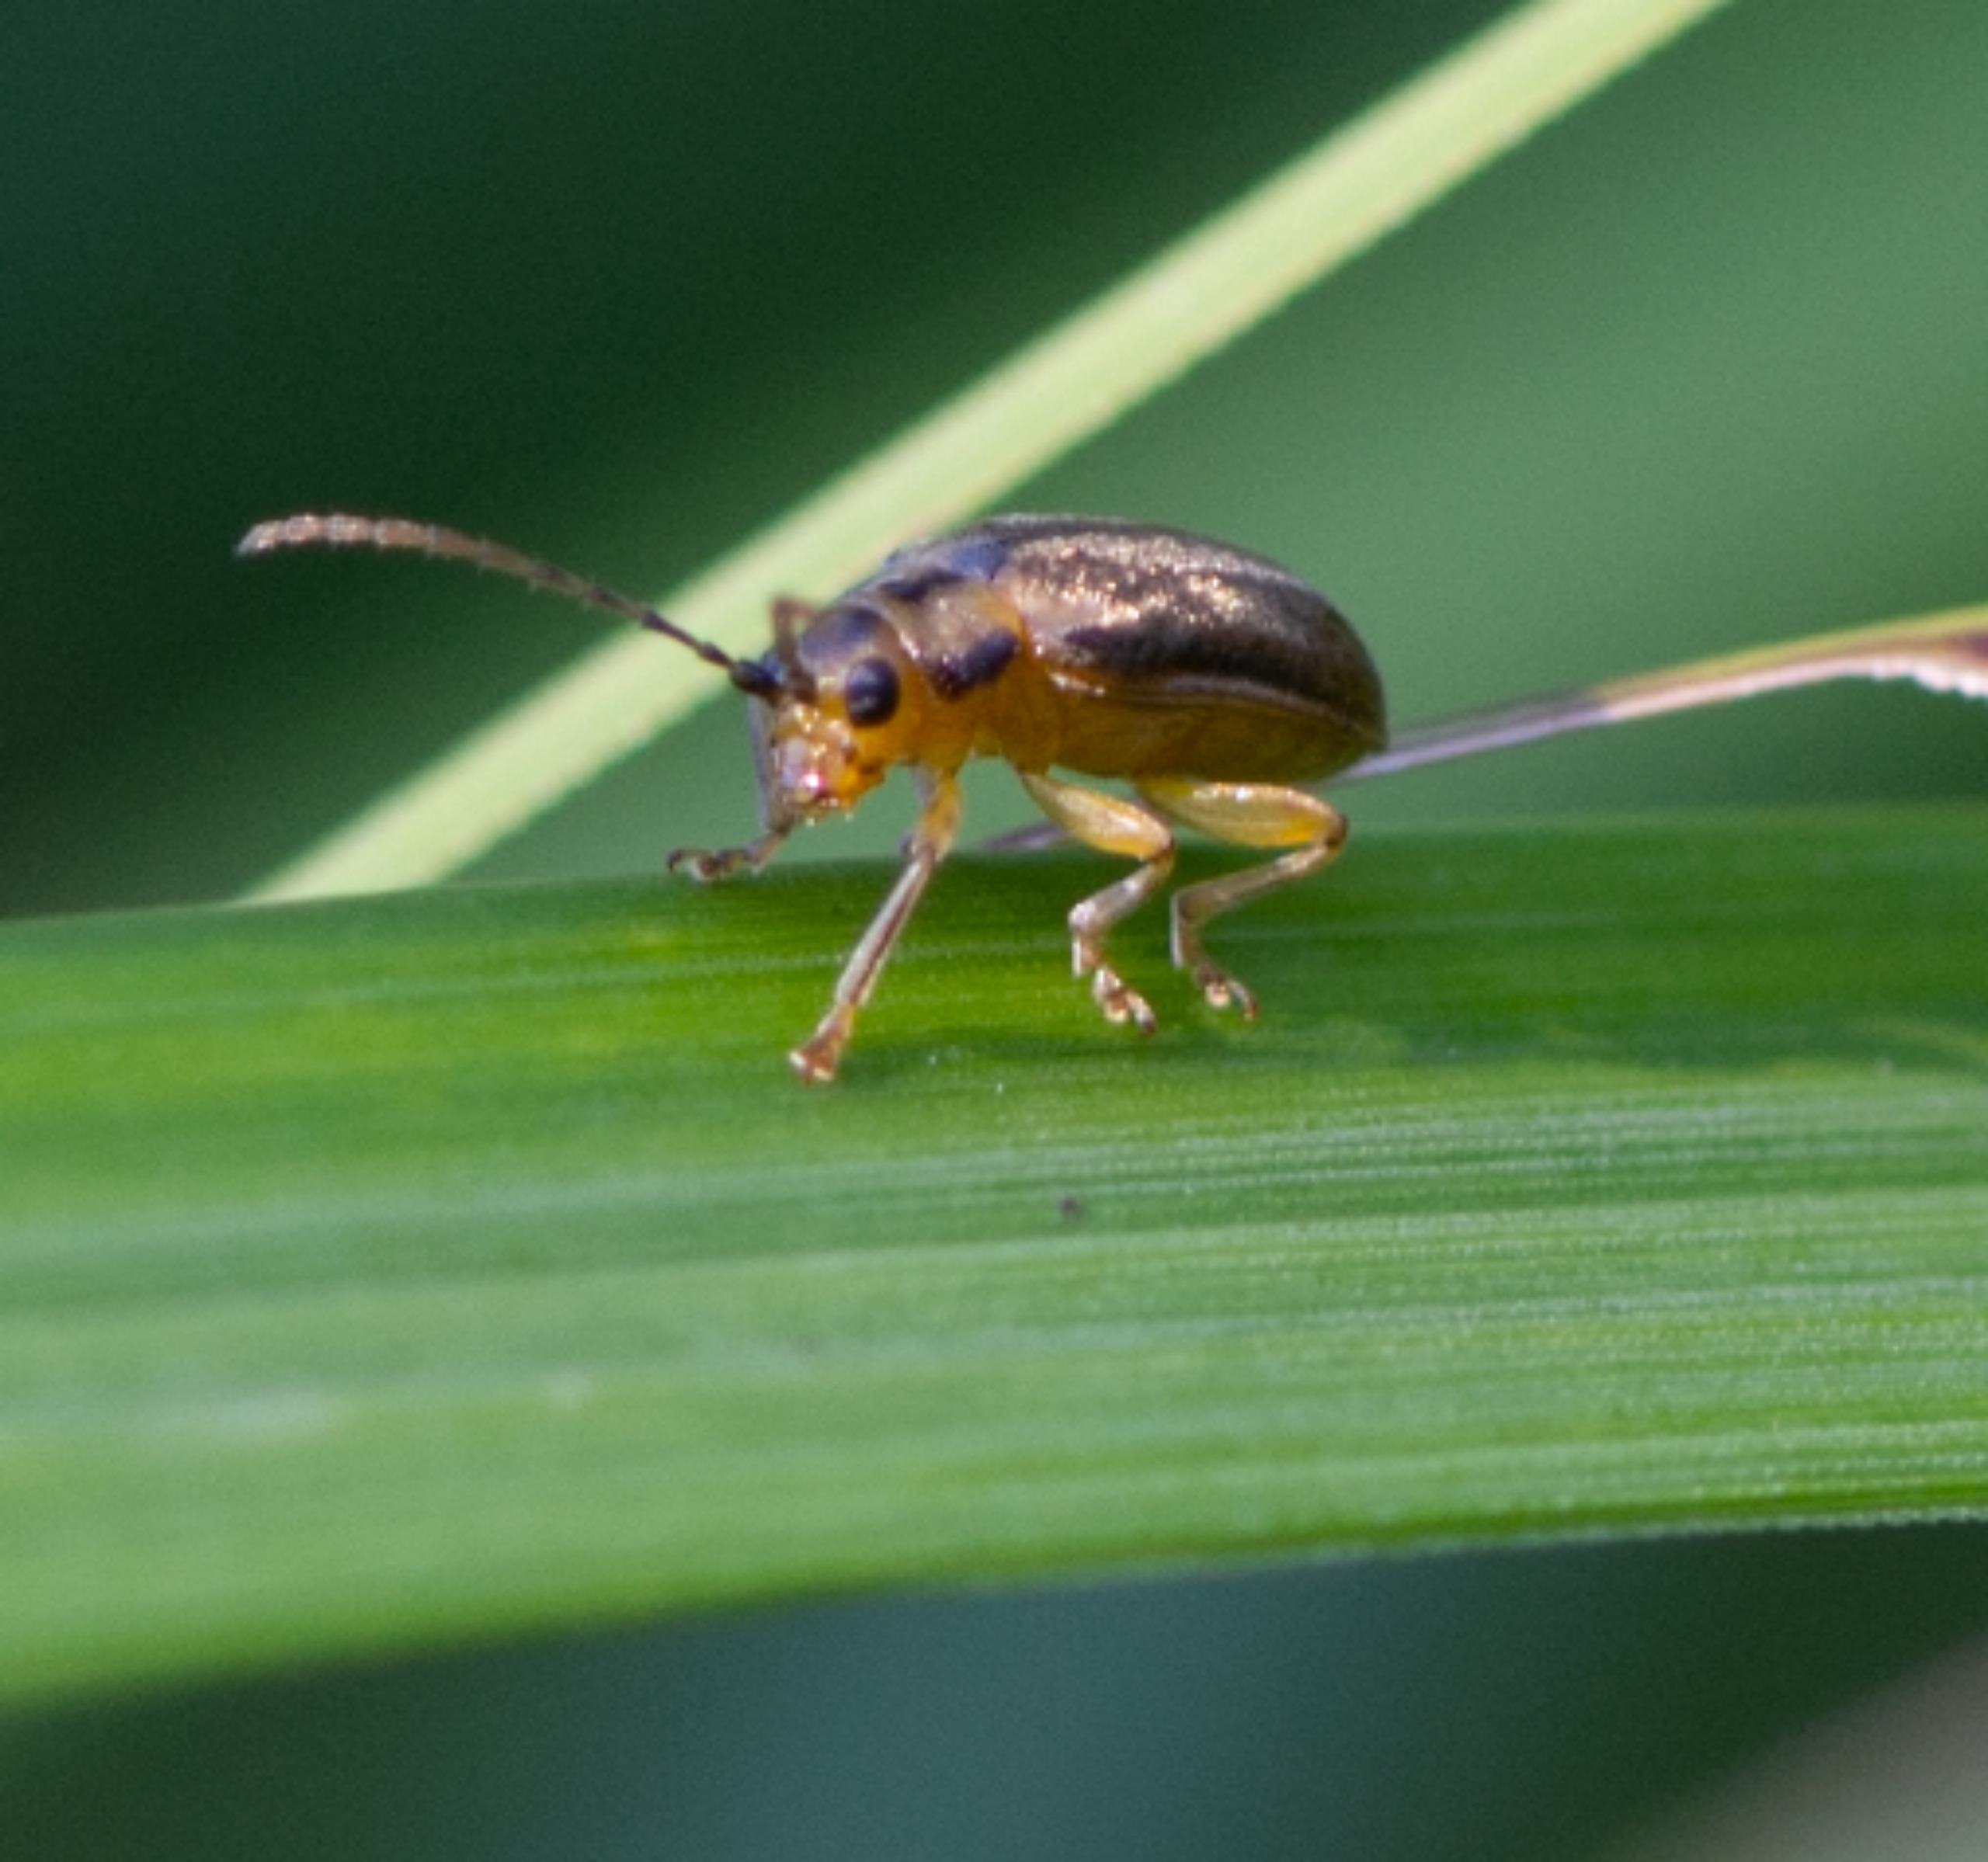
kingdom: Animalia
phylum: Arthropoda
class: Insecta
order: Coleoptera
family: Chrysomelidae
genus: Pyrrhalta
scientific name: Pyrrhalta viburni
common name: Kvalkvedbladbille
